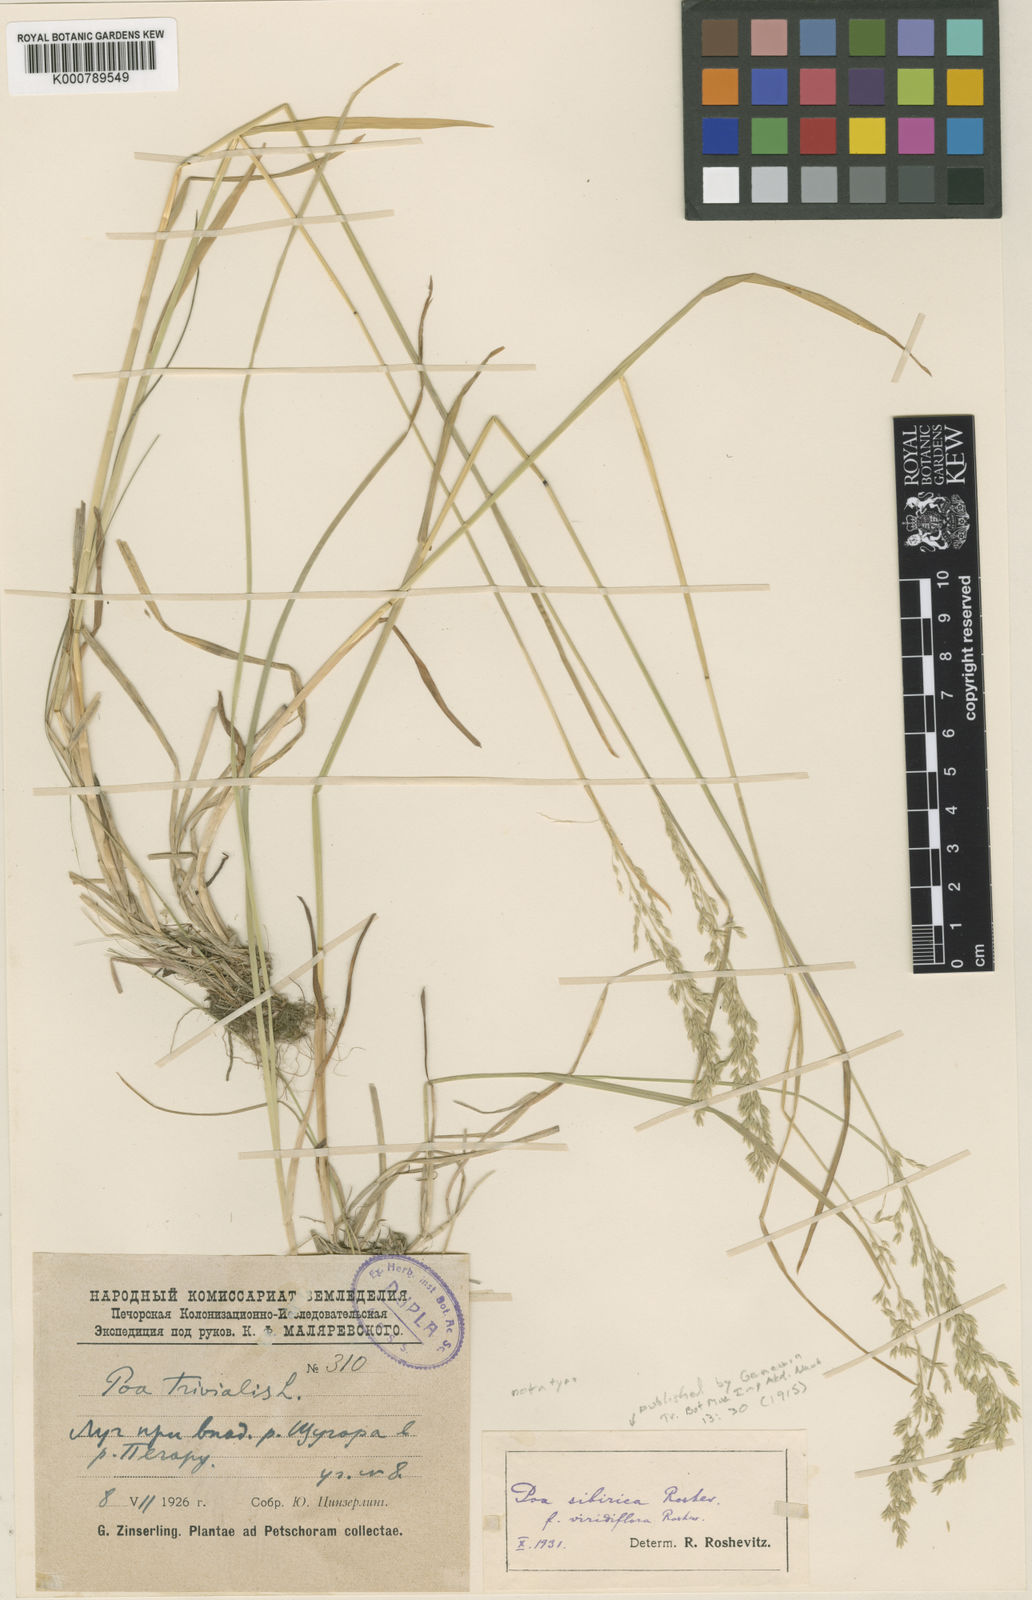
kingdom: Plantae
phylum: Tracheophyta
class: Liliopsida
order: Poales
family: Poaceae
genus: Poa
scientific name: Poa sibirica
